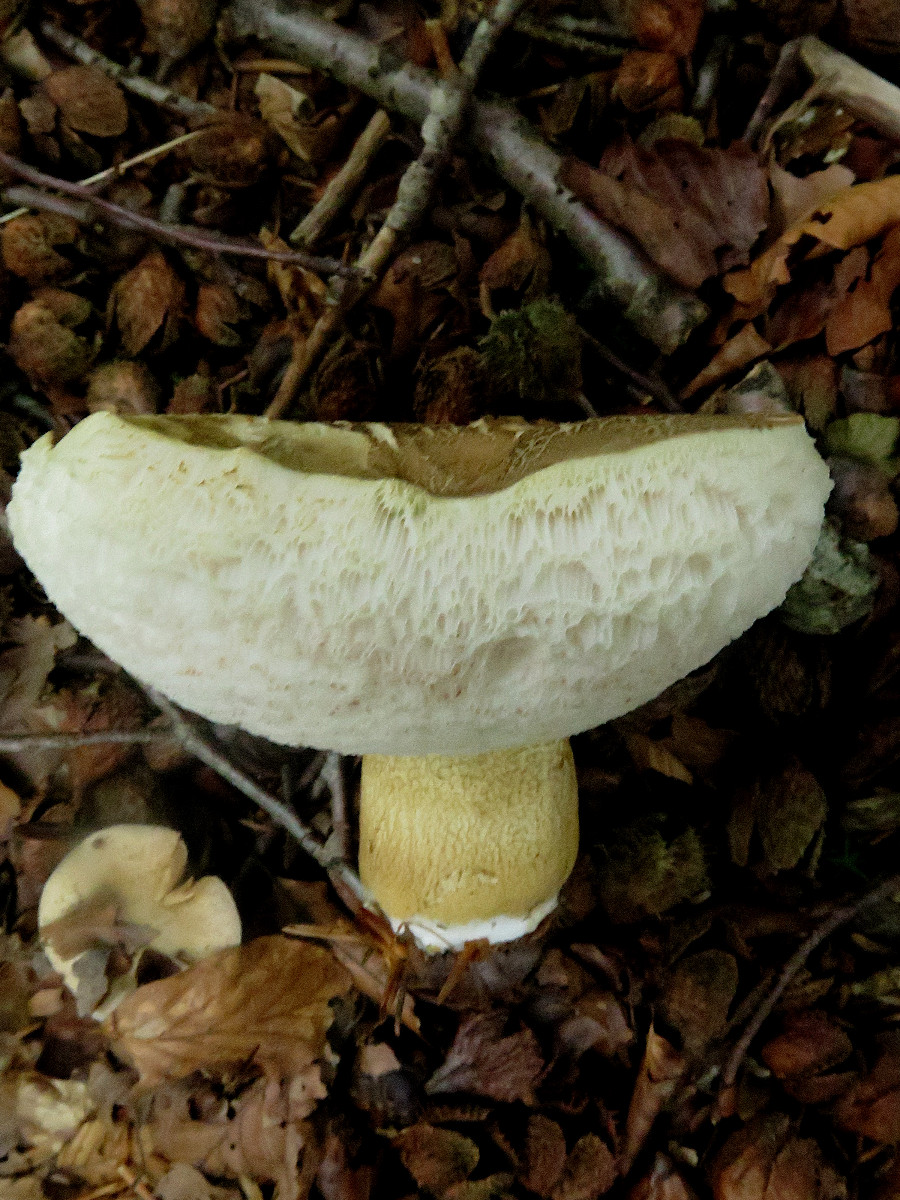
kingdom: Fungi
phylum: Basidiomycota
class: Agaricomycetes
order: Boletales
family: Boletaceae
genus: Tylopilus
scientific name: Tylopilus felleus
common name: galderørhat
